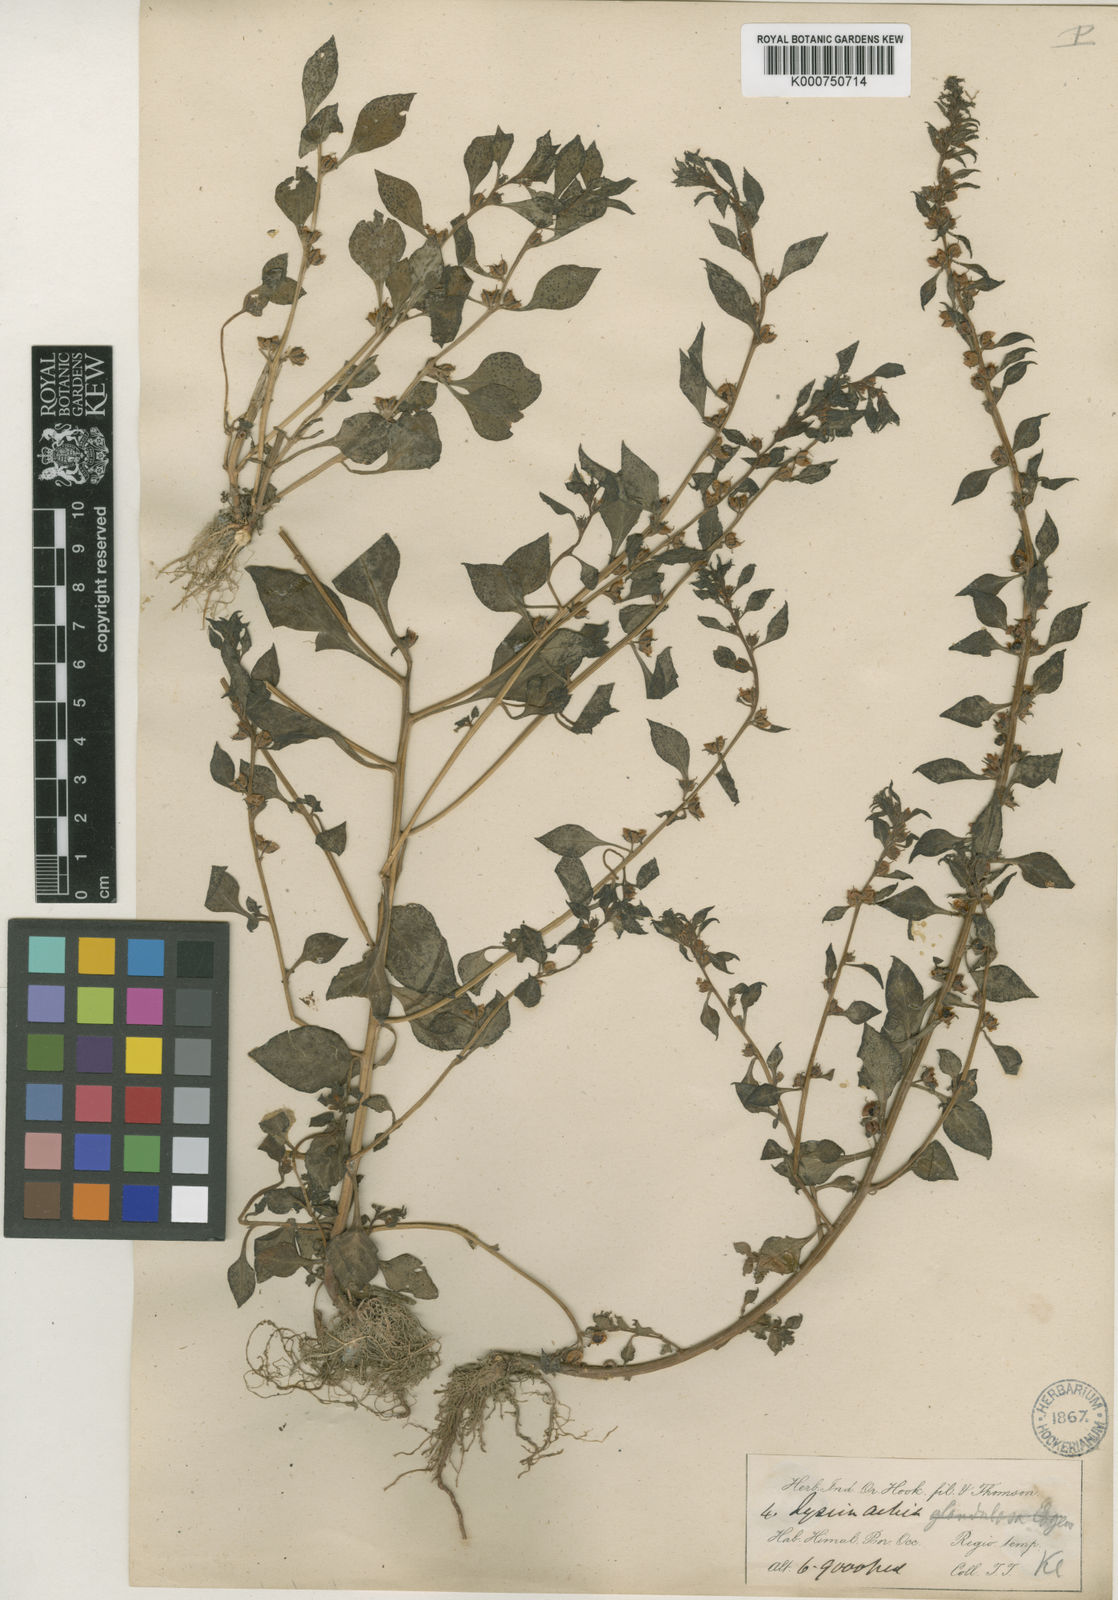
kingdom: Plantae
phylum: Tracheophyta
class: Magnoliopsida
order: Ericales
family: Primulaceae
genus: Lysimachia
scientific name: Lysimachia chenopodioides
